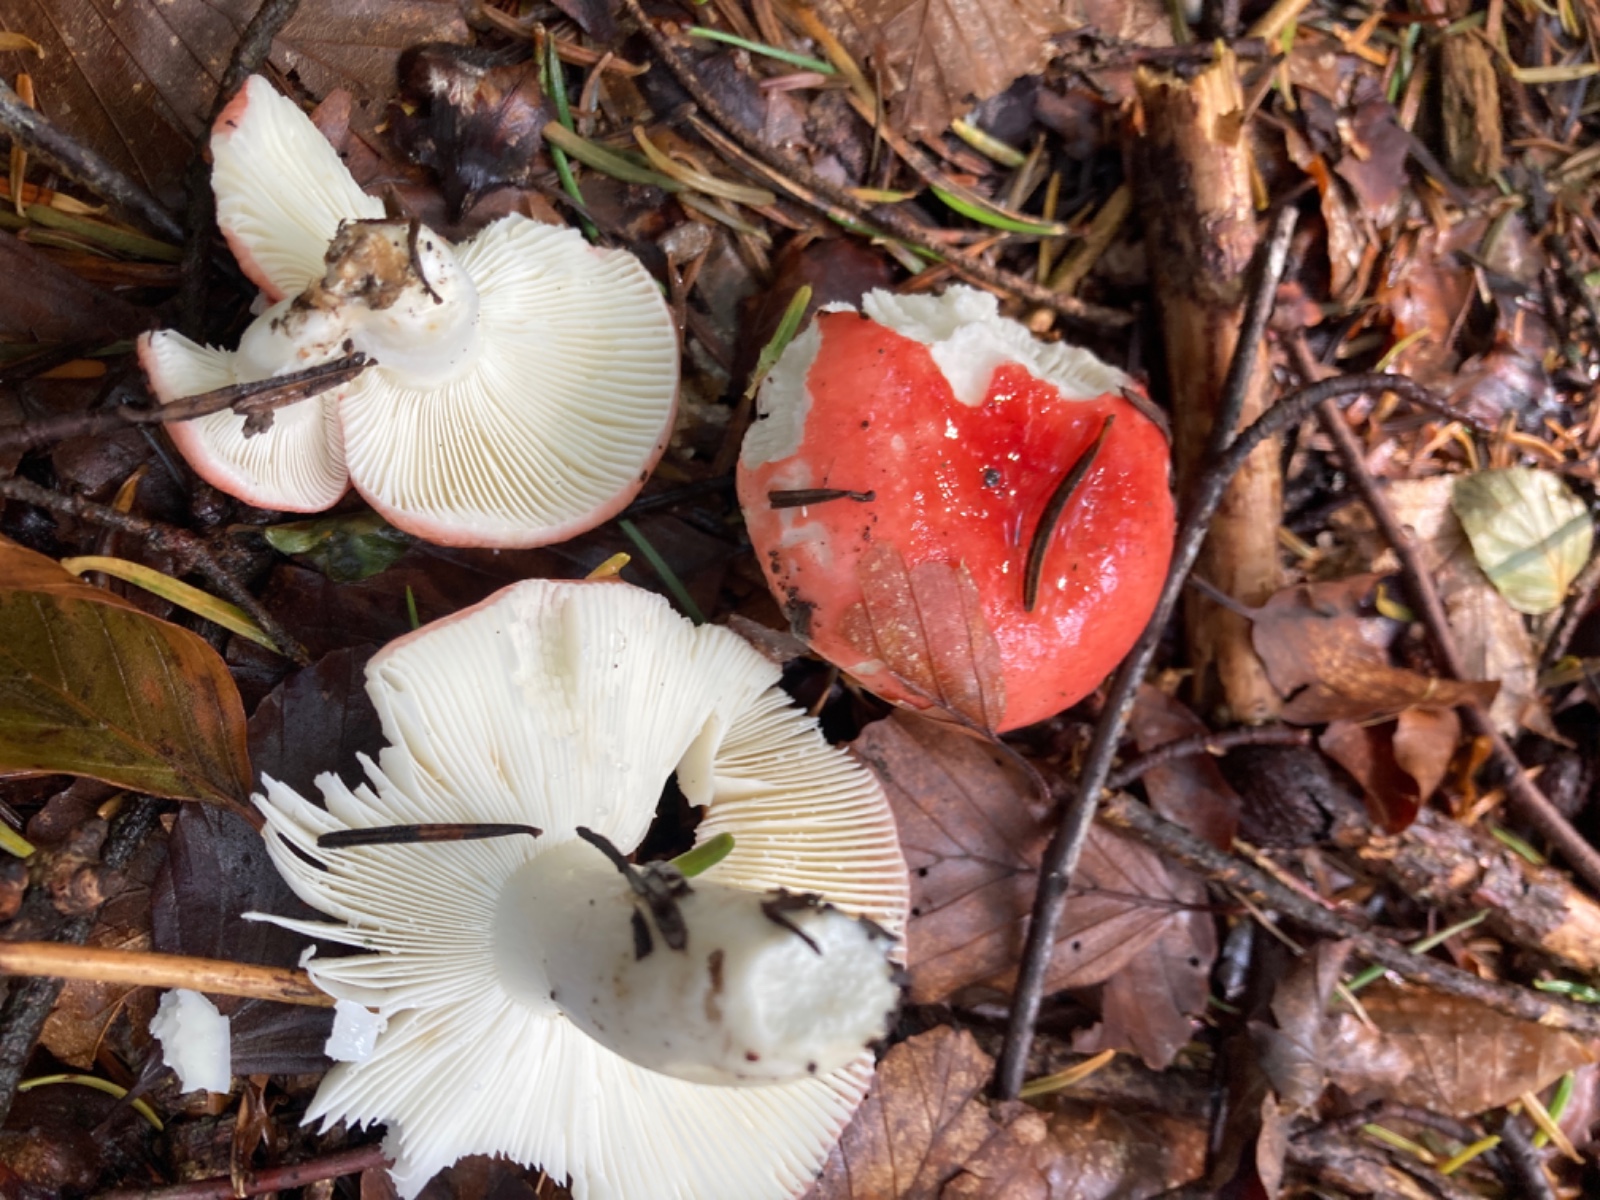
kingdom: Fungi
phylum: Basidiomycota
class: Agaricomycetes
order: Russulales
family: Russulaceae
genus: Russula
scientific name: Russula silvestris
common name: mellemstor gift-skørhat
